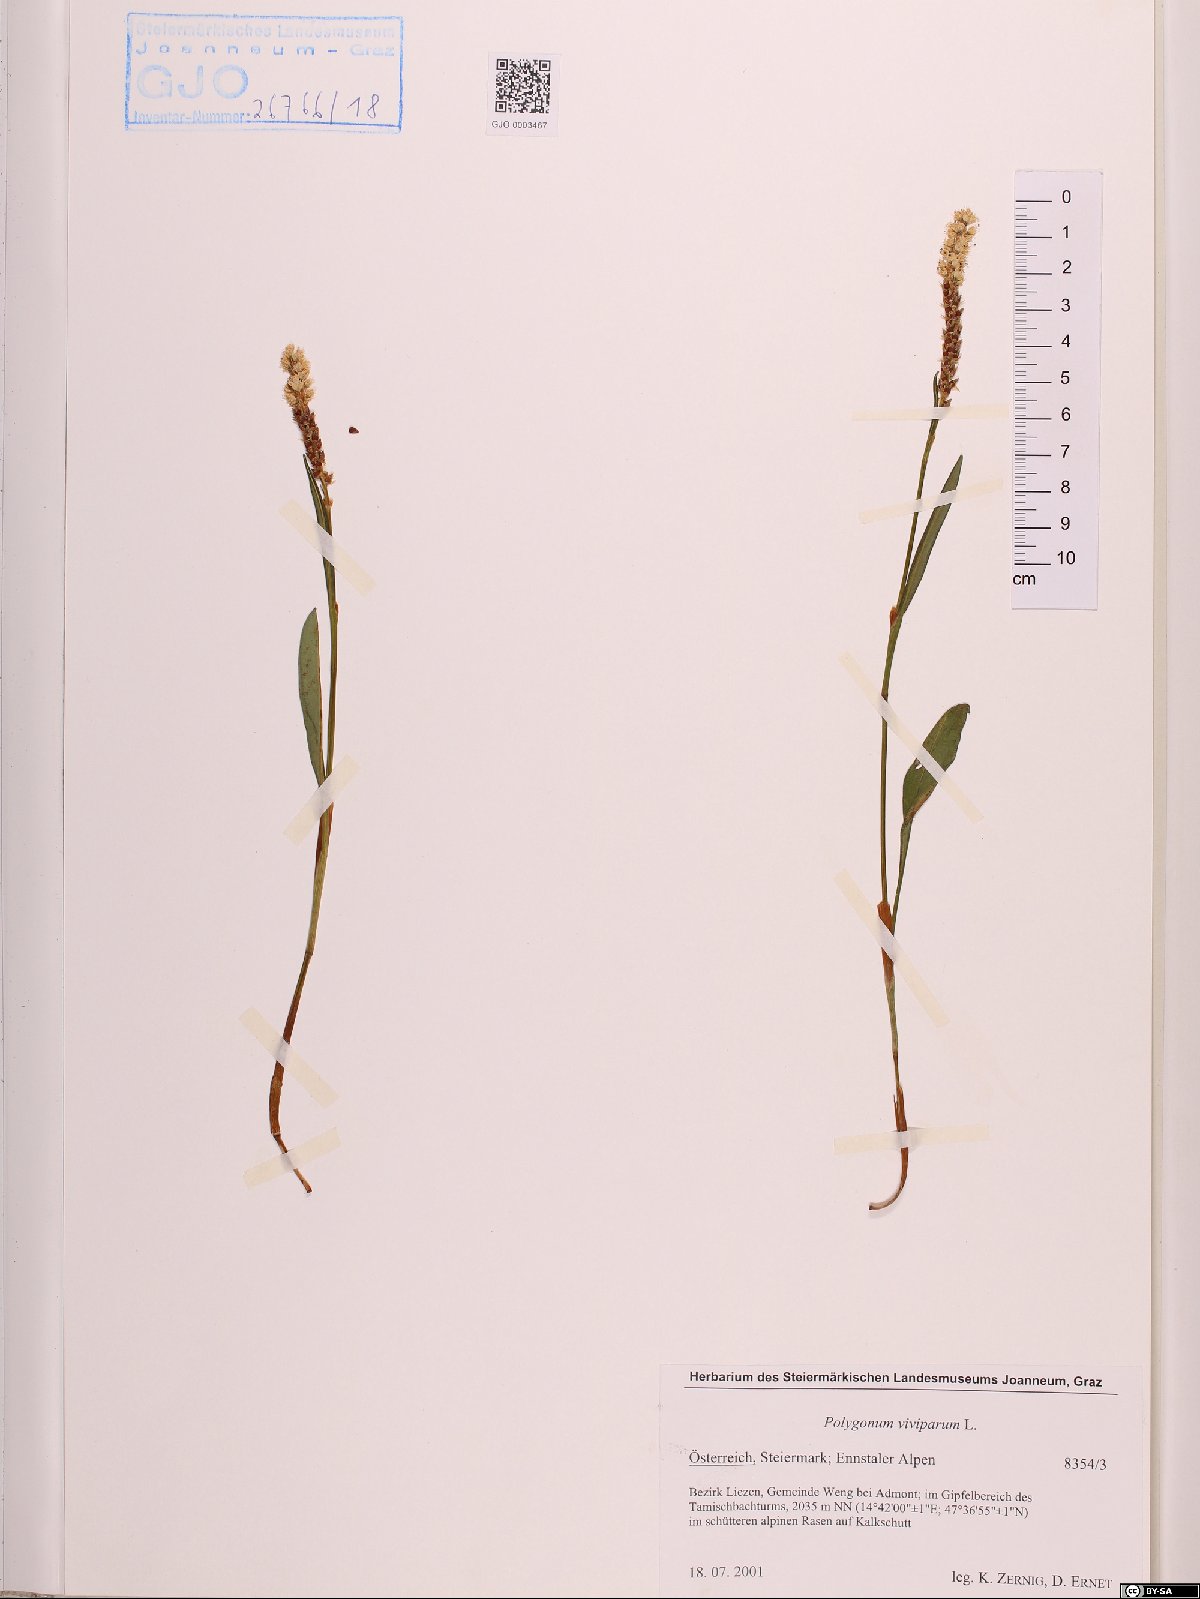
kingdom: Plantae
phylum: Tracheophyta
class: Magnoliopsida
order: Caryophyllales
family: Polygonaceae
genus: Bistorta
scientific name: Bistorta vivipara
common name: Alpine bistort
